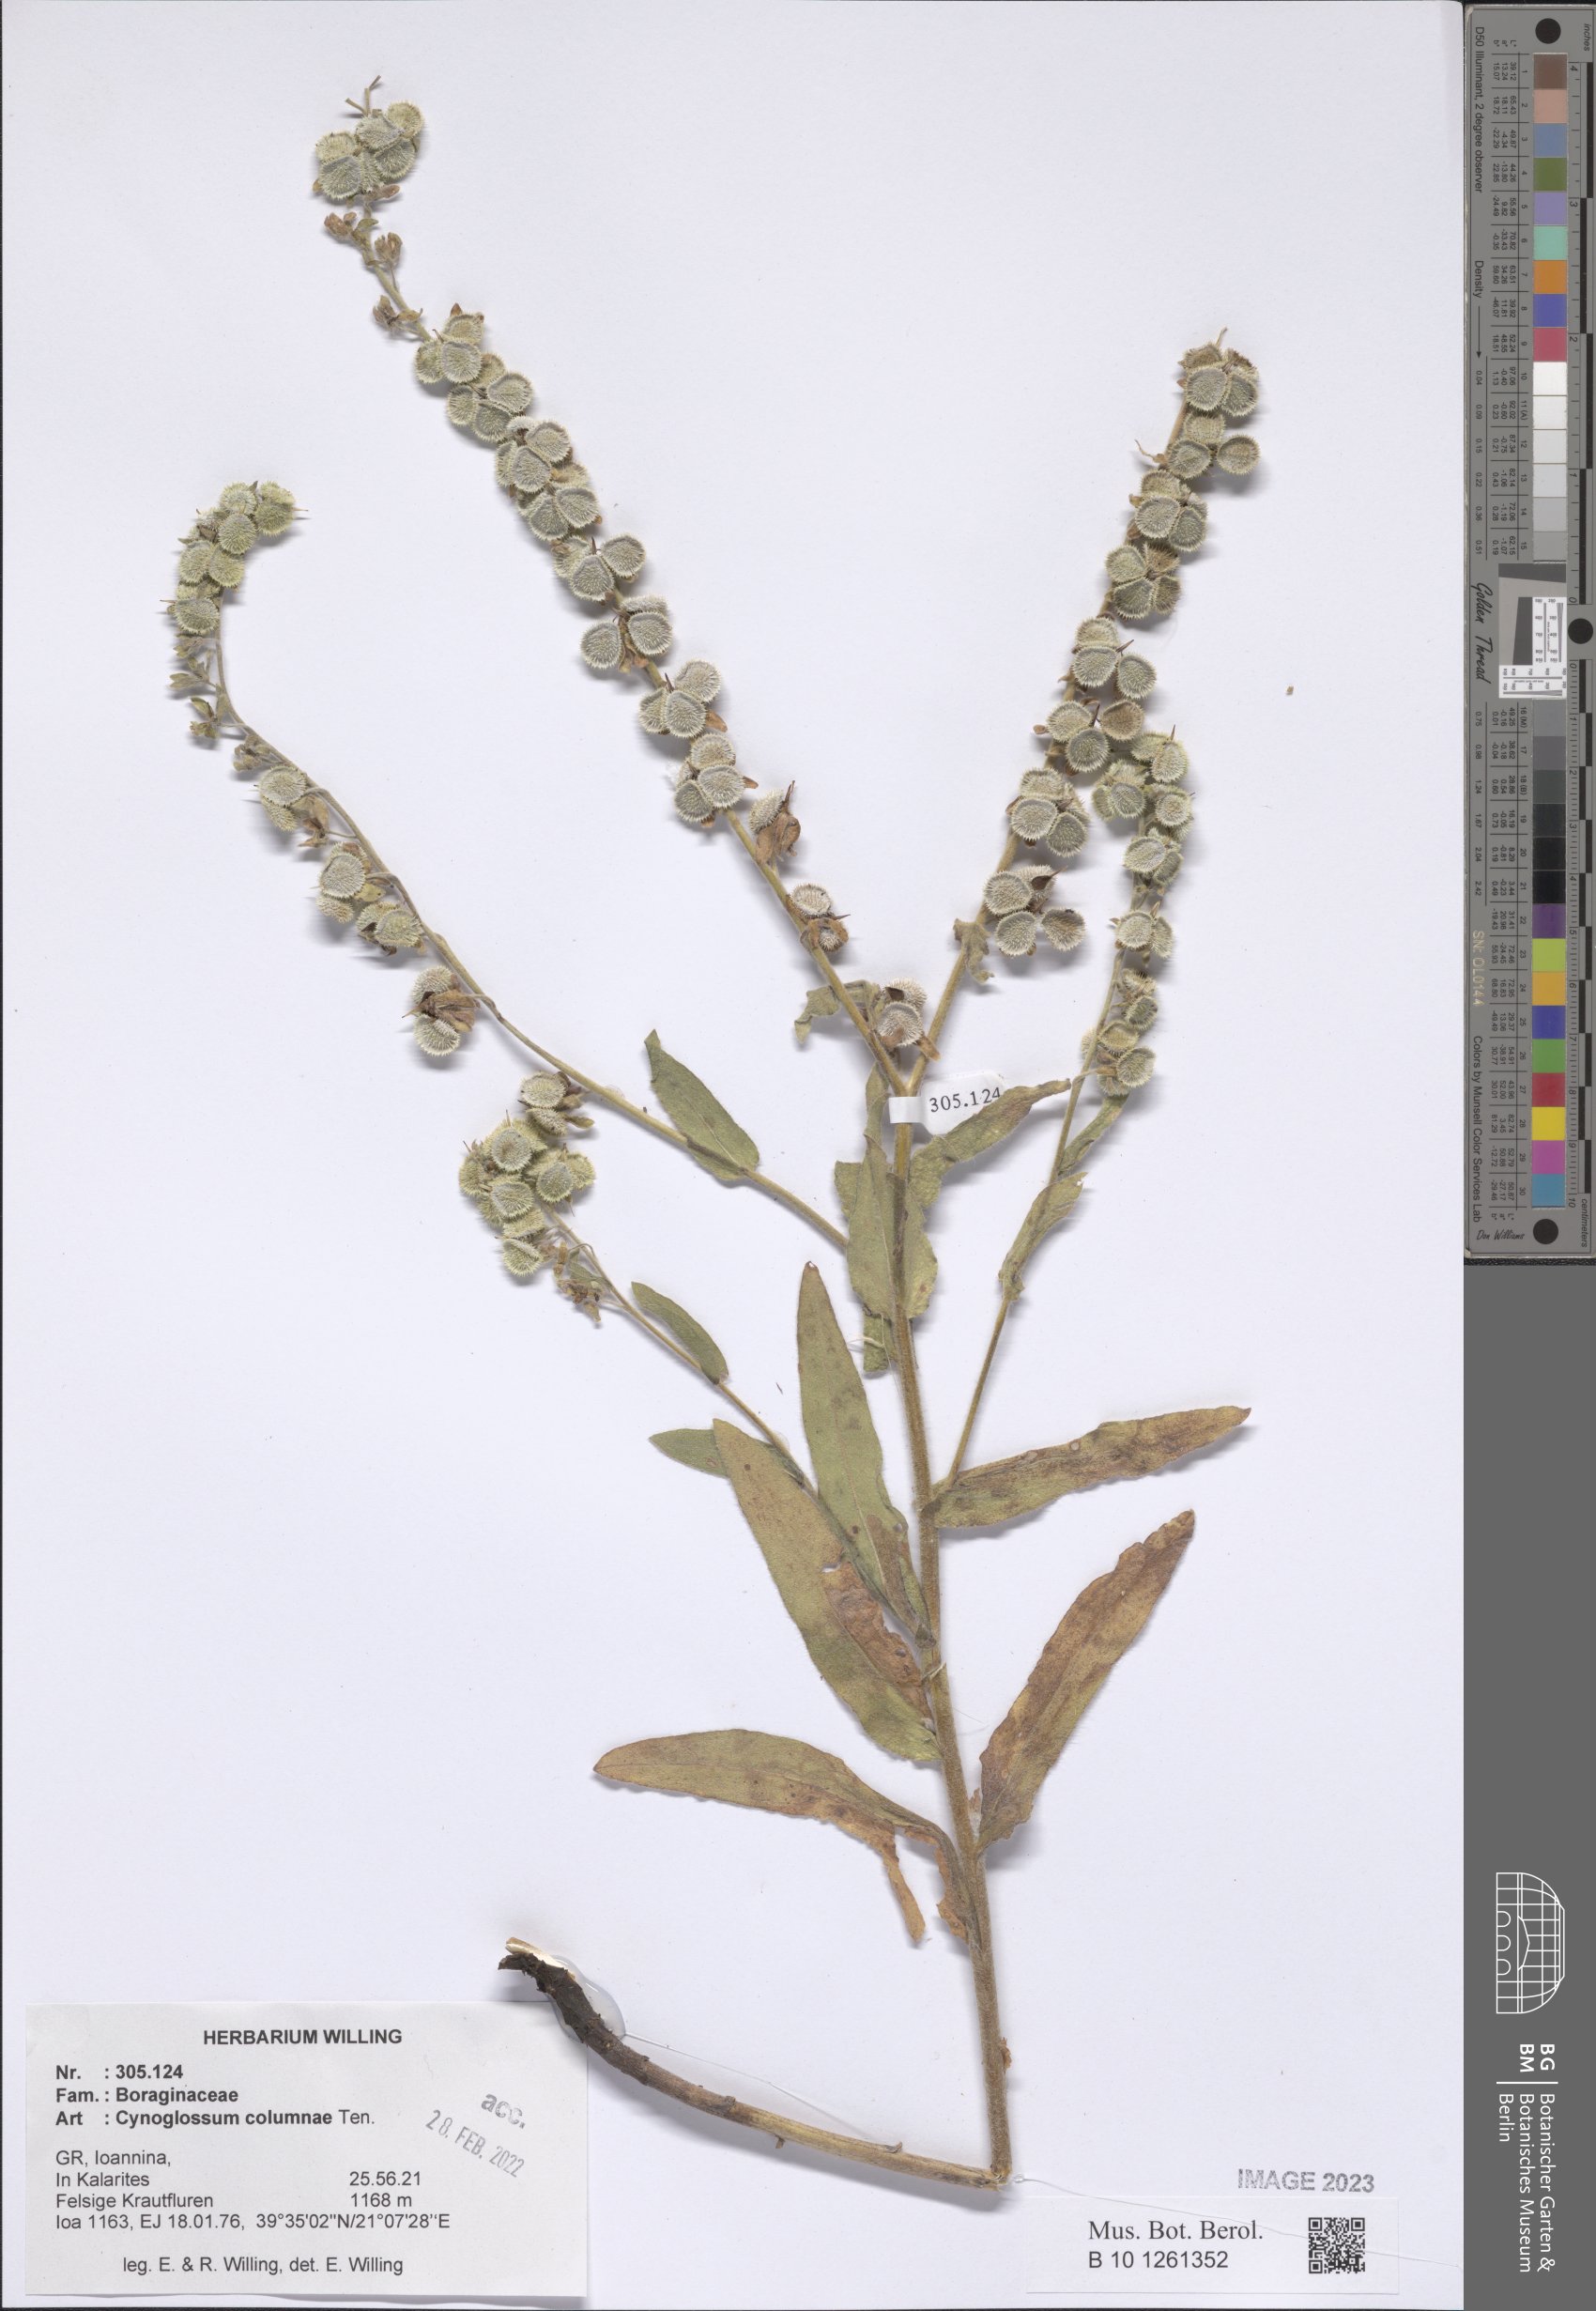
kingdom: Plantae
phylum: Tracheophyta
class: Magnoliopsida
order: Boraginales
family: Boraginaceae
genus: Rindera
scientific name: Rindera columnae
